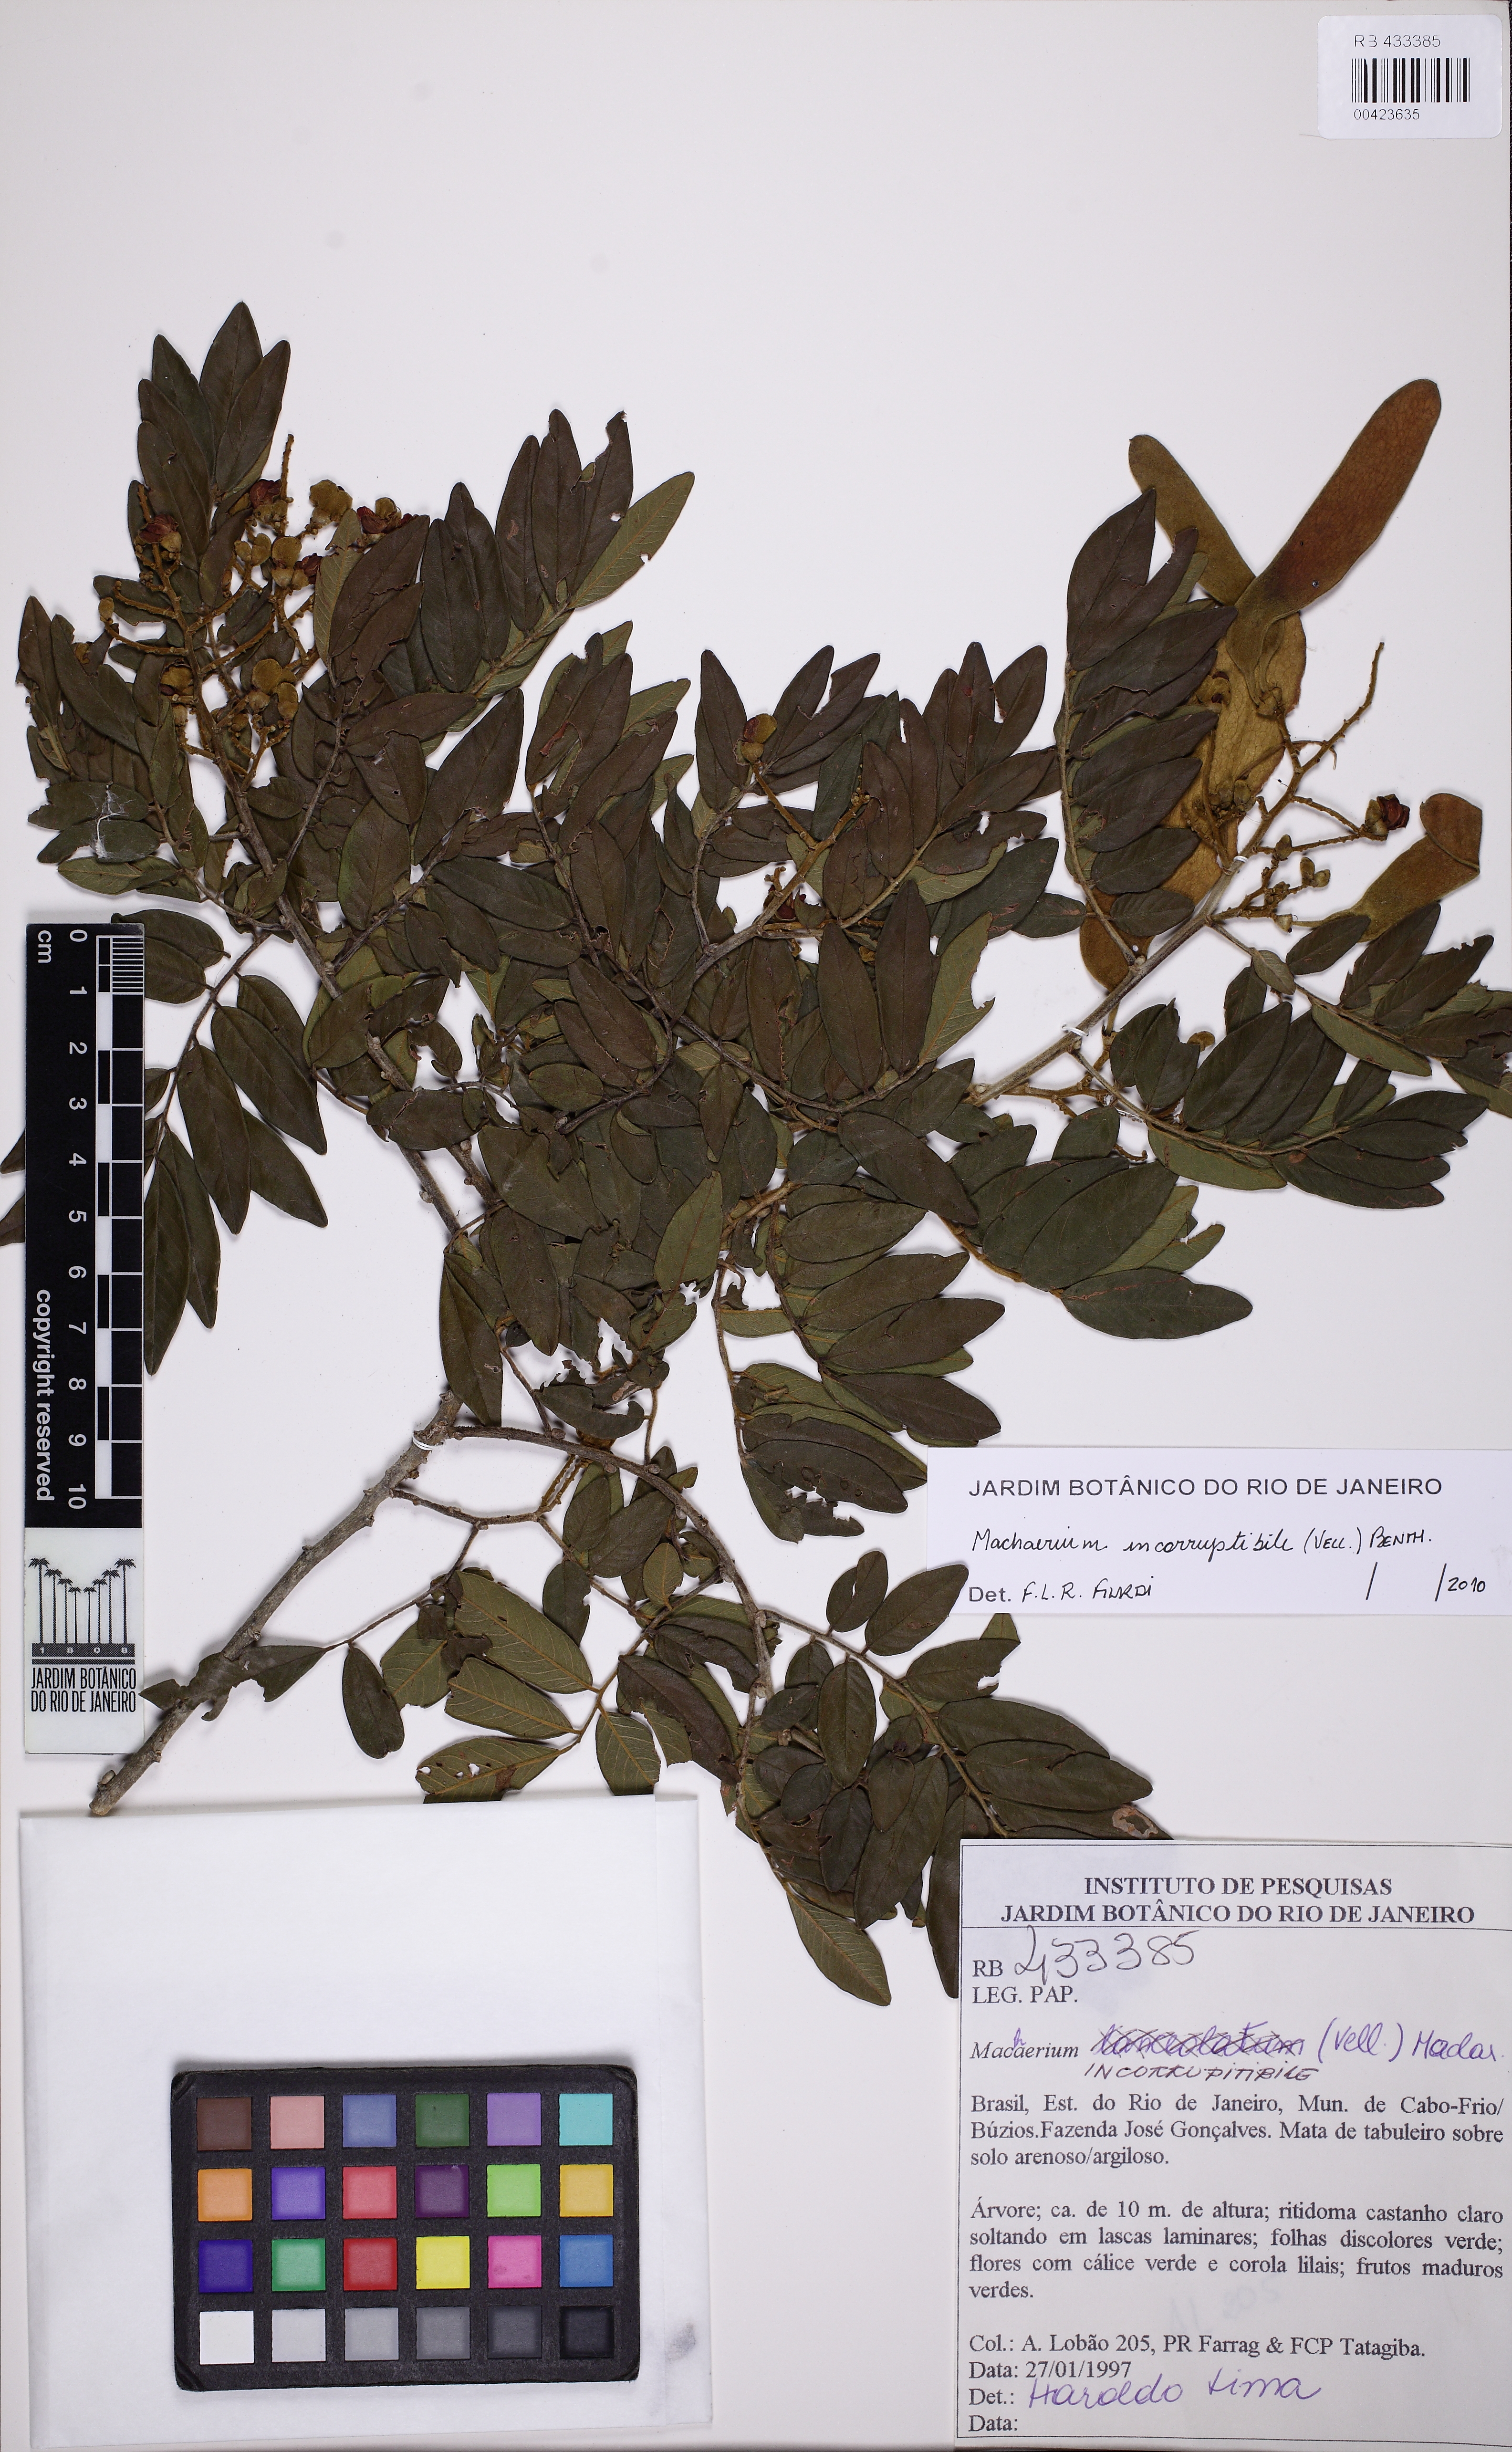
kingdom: Plantae
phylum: Tracheophyta
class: Magnoliopsida
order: Fabales
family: Fabaceae
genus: Machaerium
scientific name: Machaerium incorruptibile
